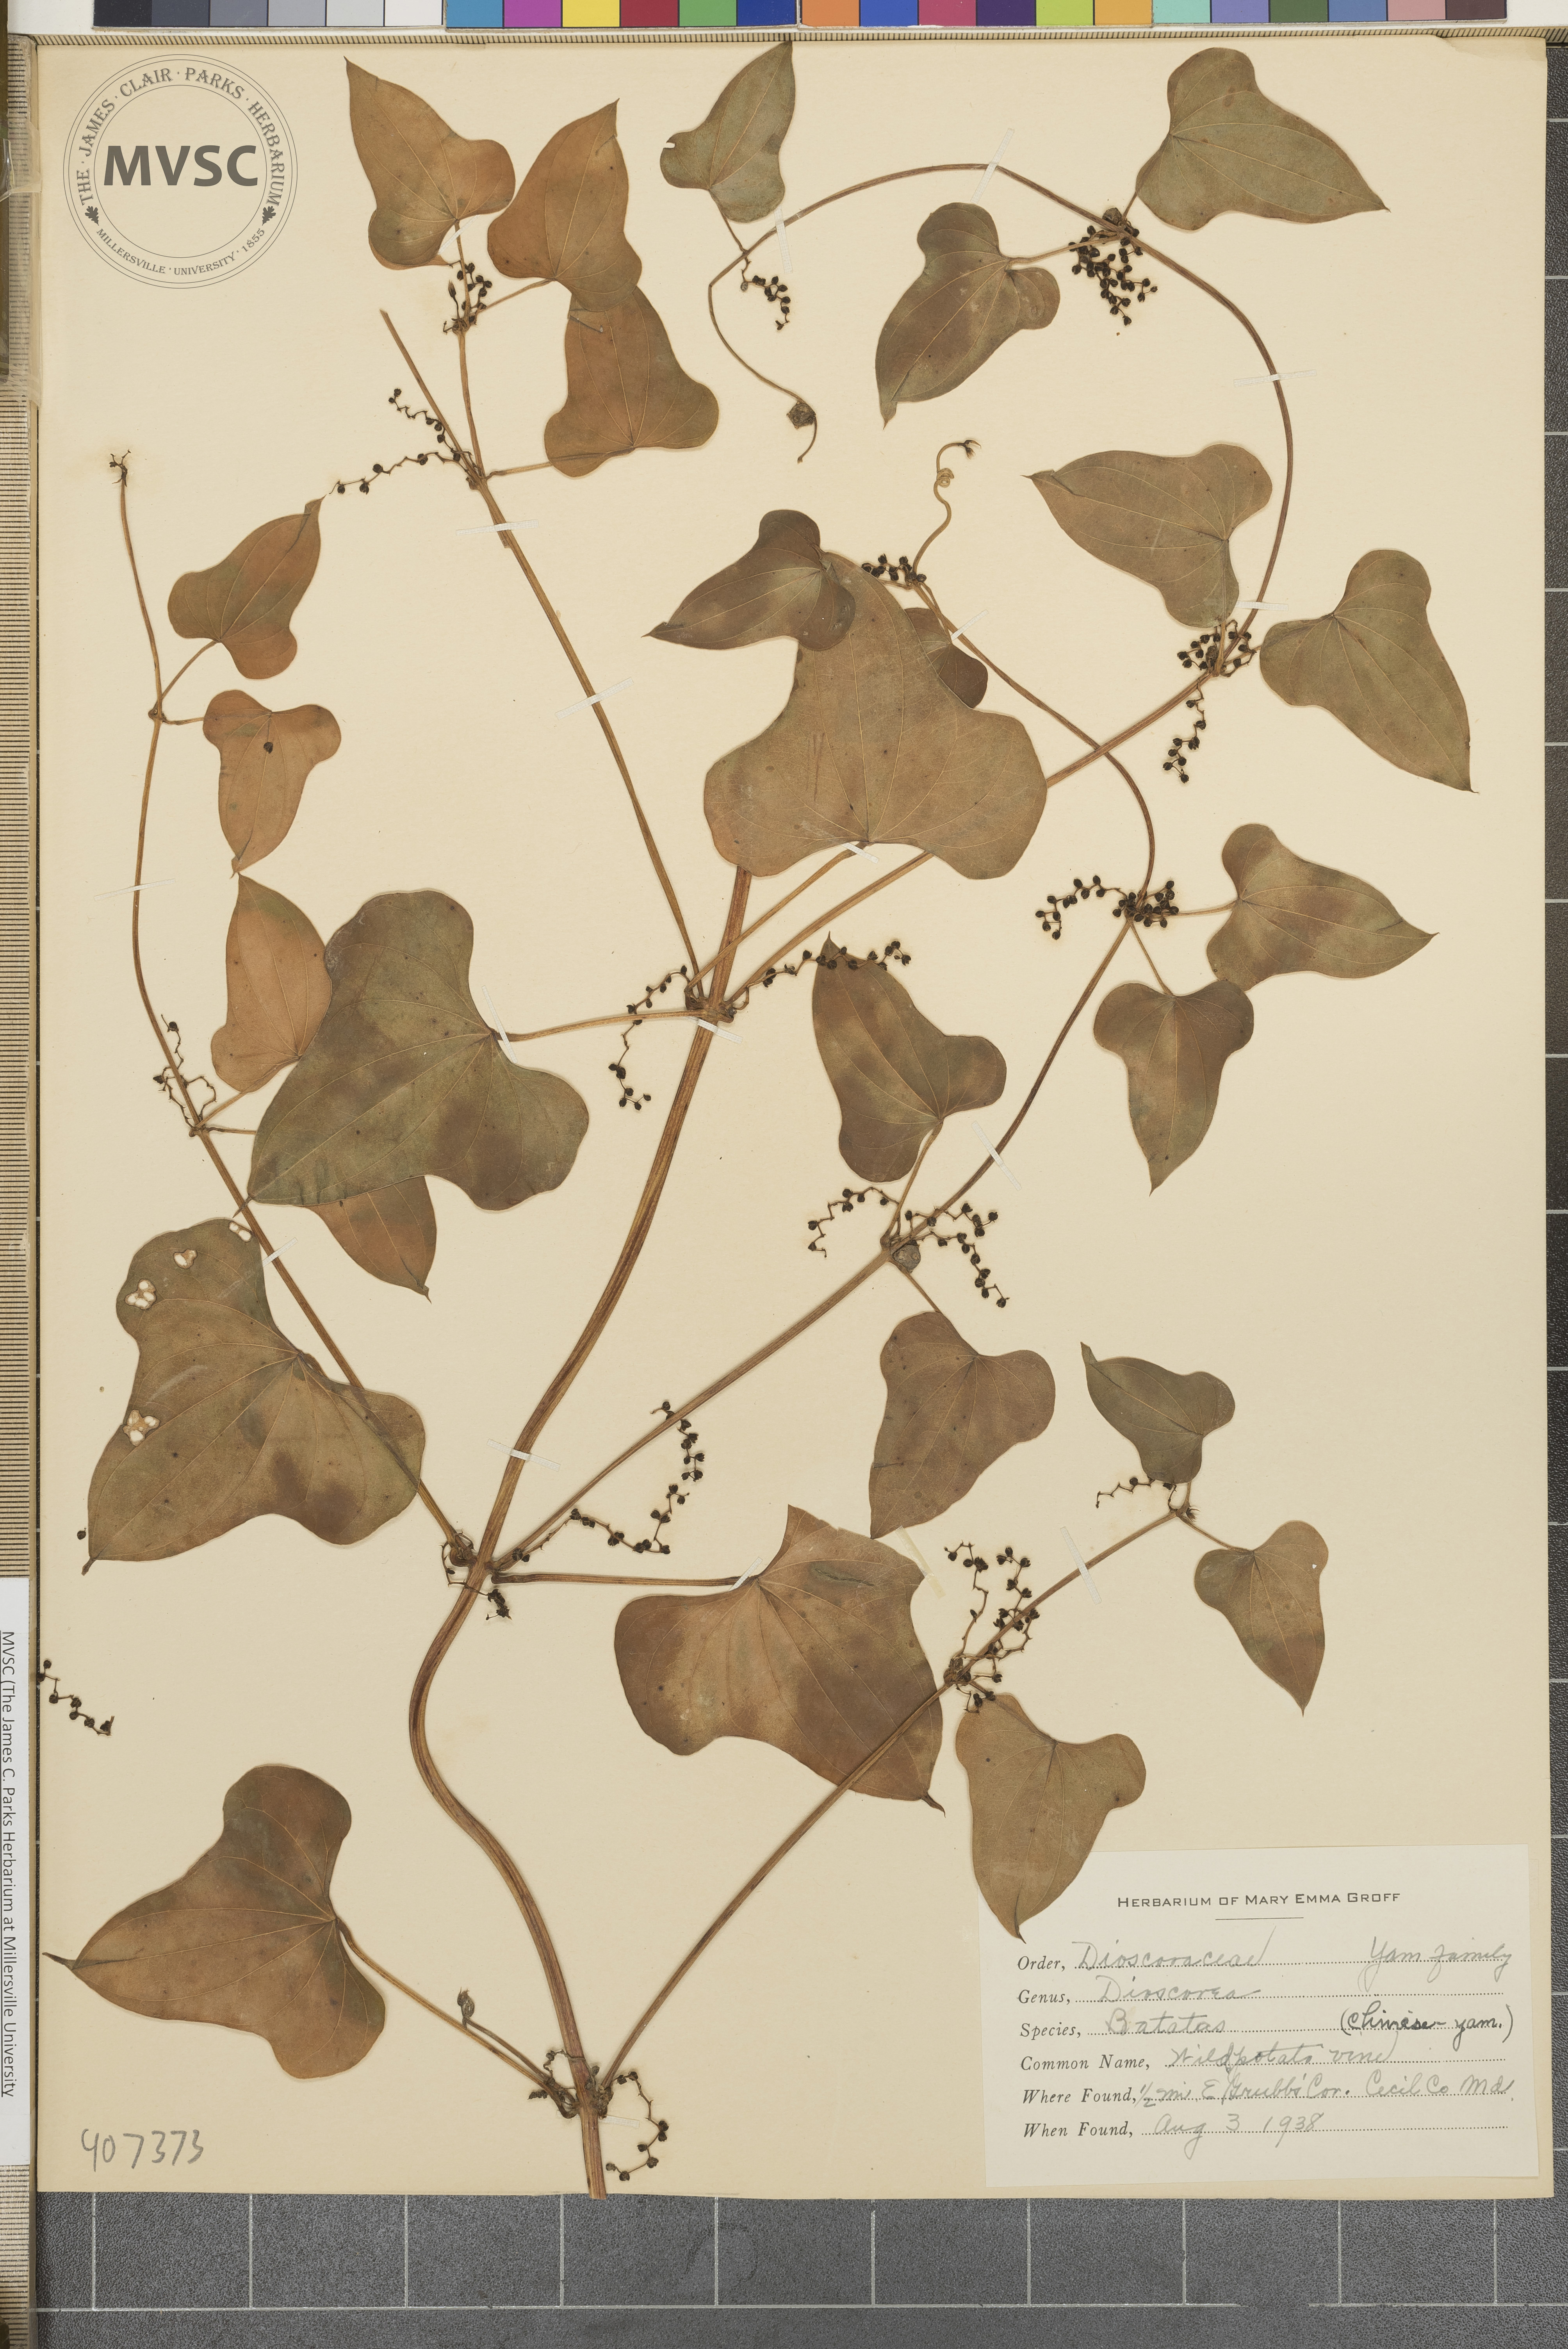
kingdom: Plantae
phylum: Tracheophyta
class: Liliopsida
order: Dioscoreales
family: Dioscoreaceae
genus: Dioscorea
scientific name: Dioscorea polystachya
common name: Wild potato vine
